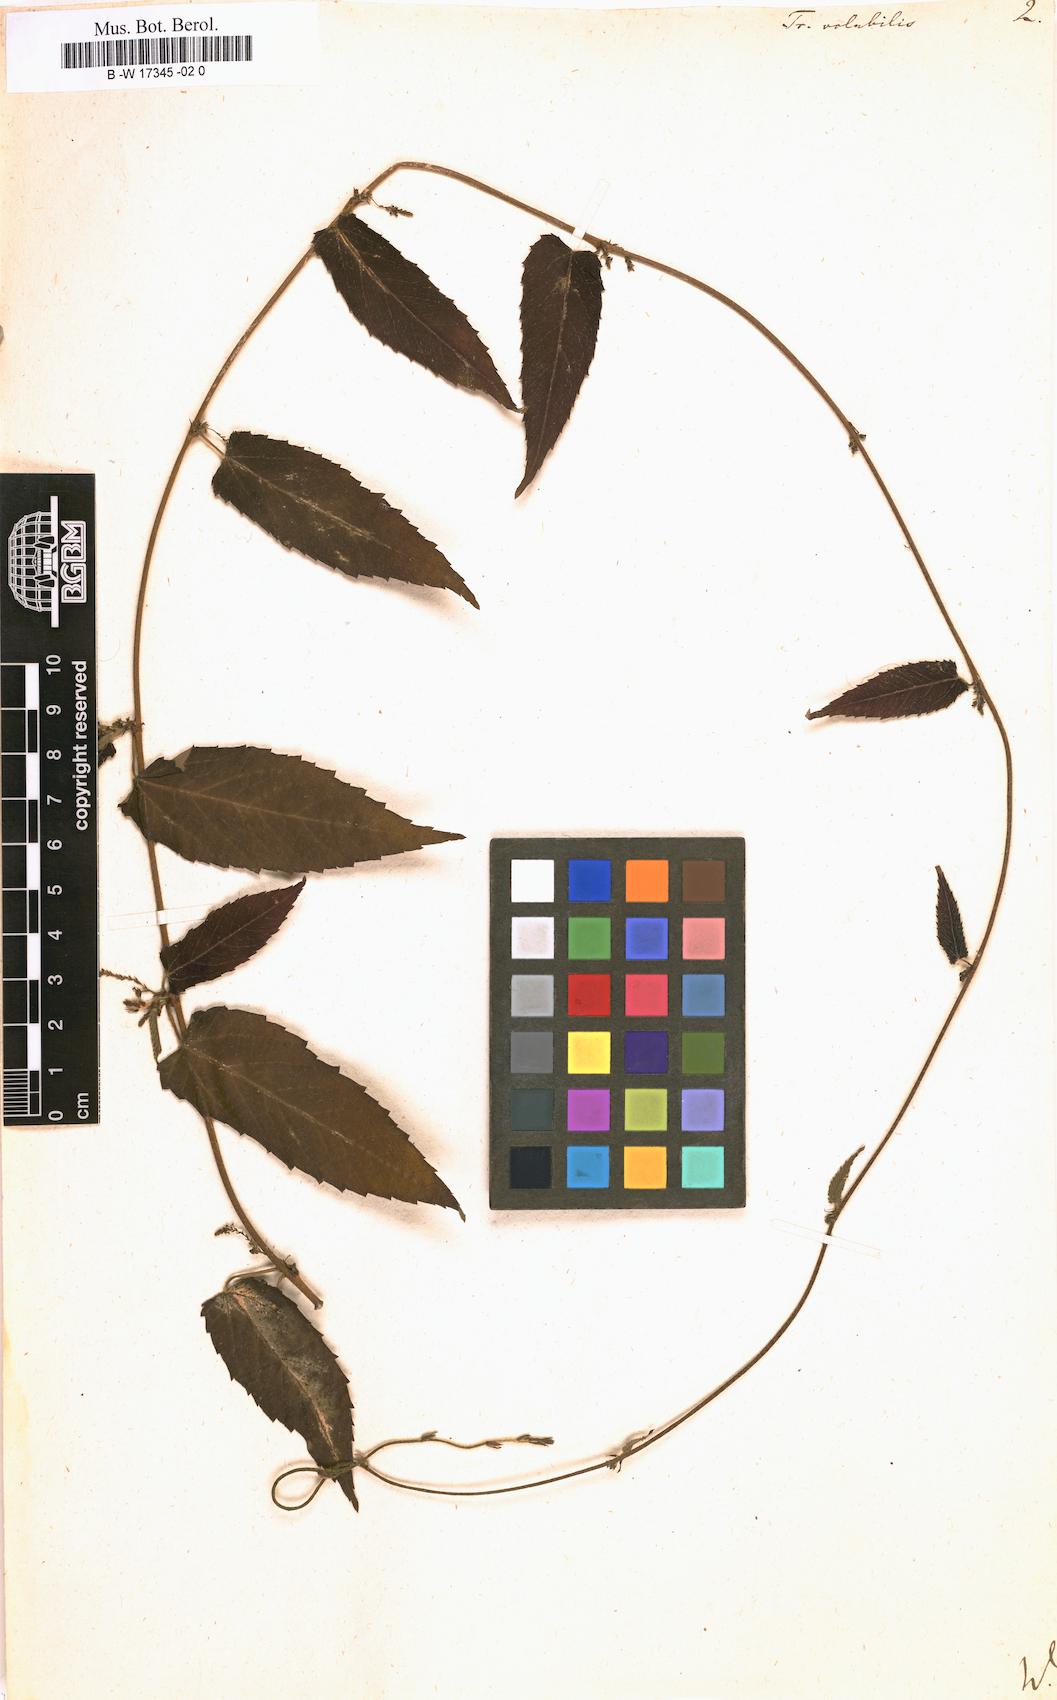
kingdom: Plantae
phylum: Tracheophyta
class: Magnoliopsida
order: Malpighiales
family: Euphorbiaceae
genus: Tragia
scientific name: Tragia volubilis
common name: Twining cow-itch
